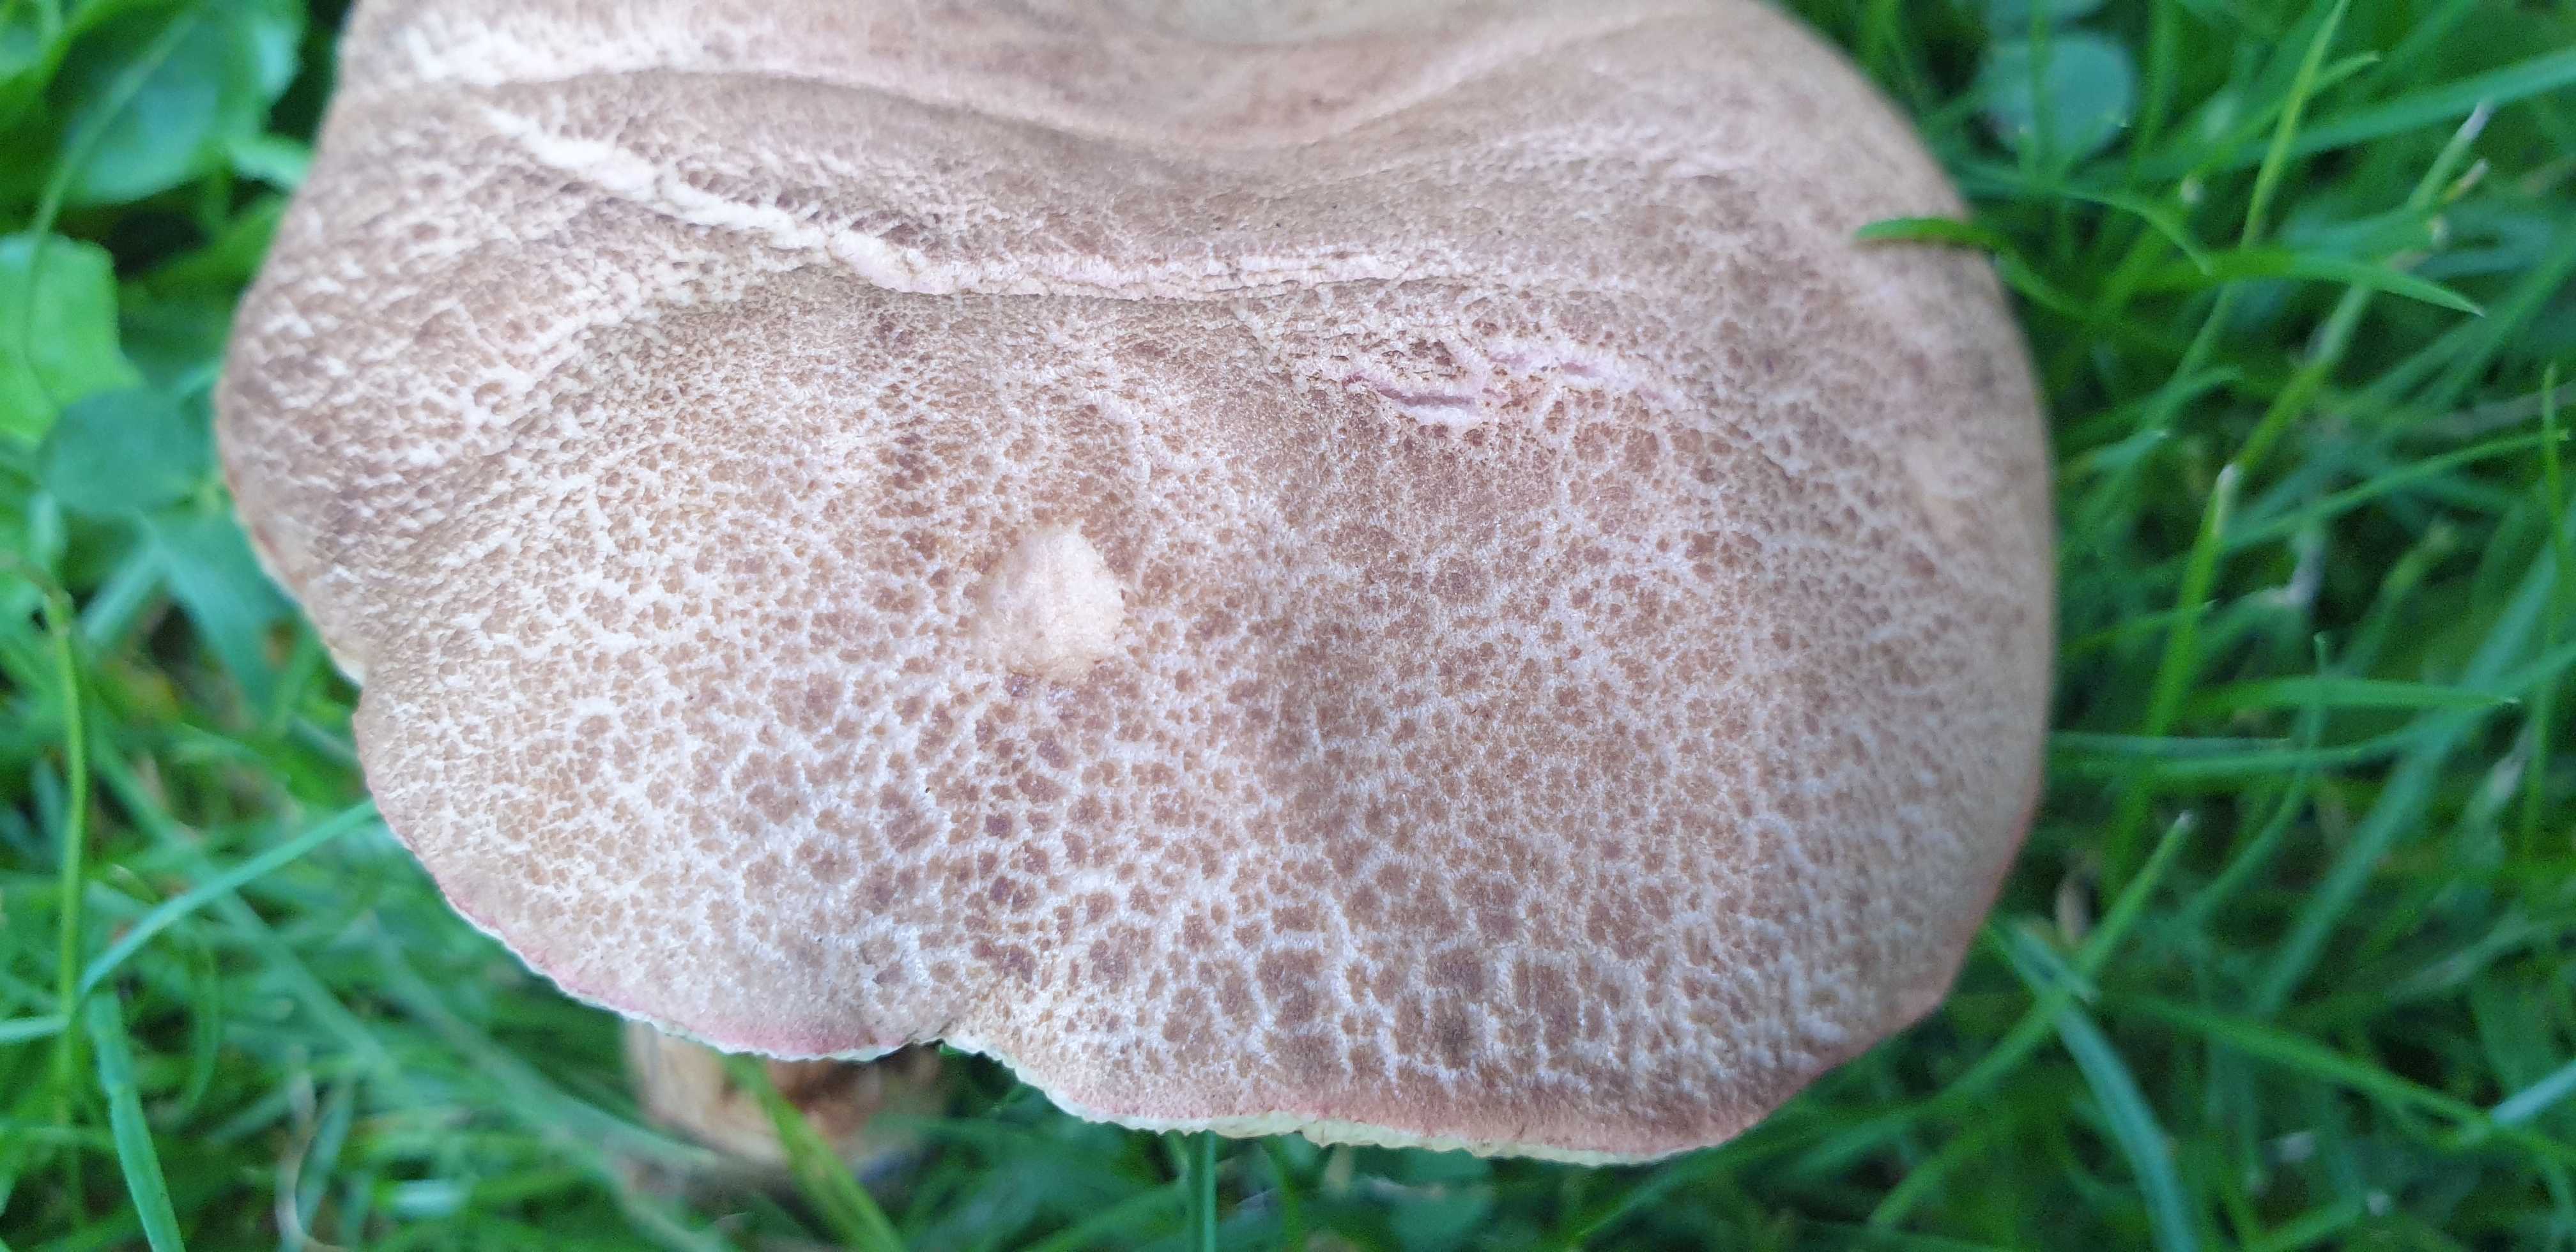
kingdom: Fungi
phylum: Basidiomycota
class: Agaricomycetes
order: Boletales
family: Boletaceae
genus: Hortiboletus
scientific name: Hortiboletus bubalinus
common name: aurora-rørhat
